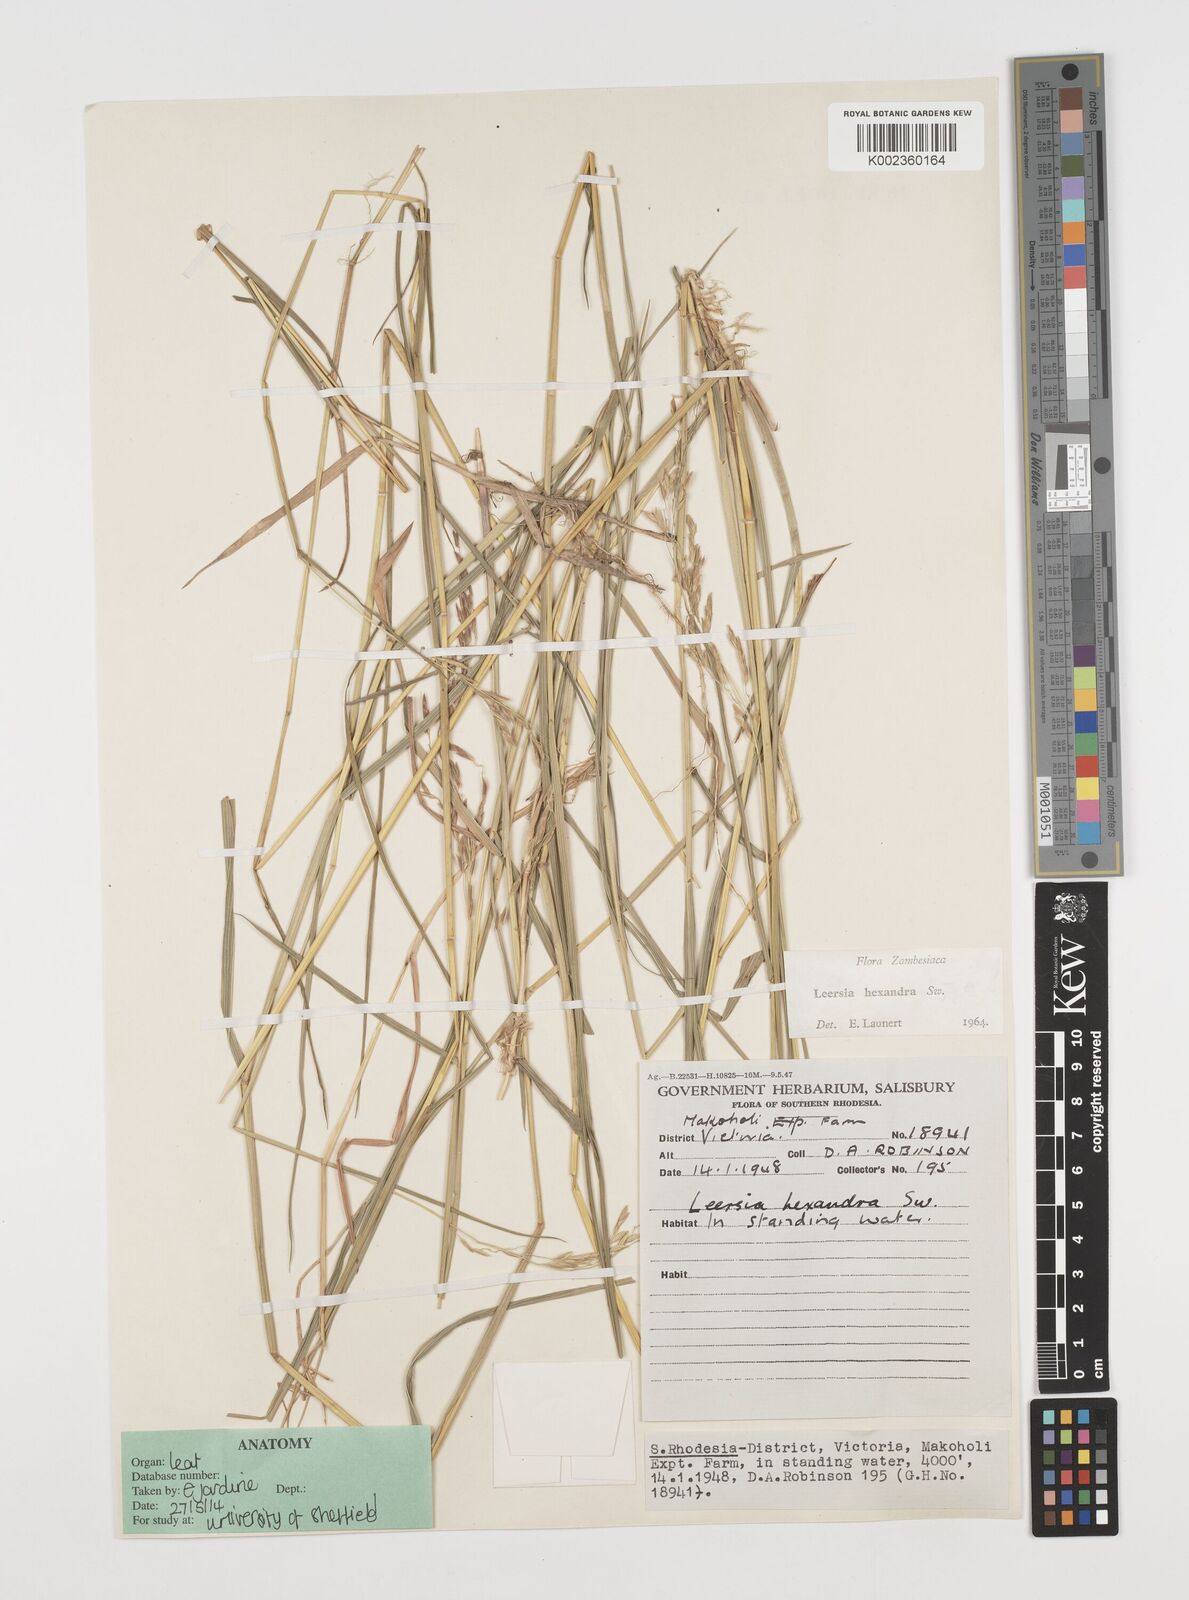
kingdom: Plantae
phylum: Tracheophyta
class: Liliopsida
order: Poales
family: Poaceae
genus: Leersia
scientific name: Leersia hexandra
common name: Southern cut grass
